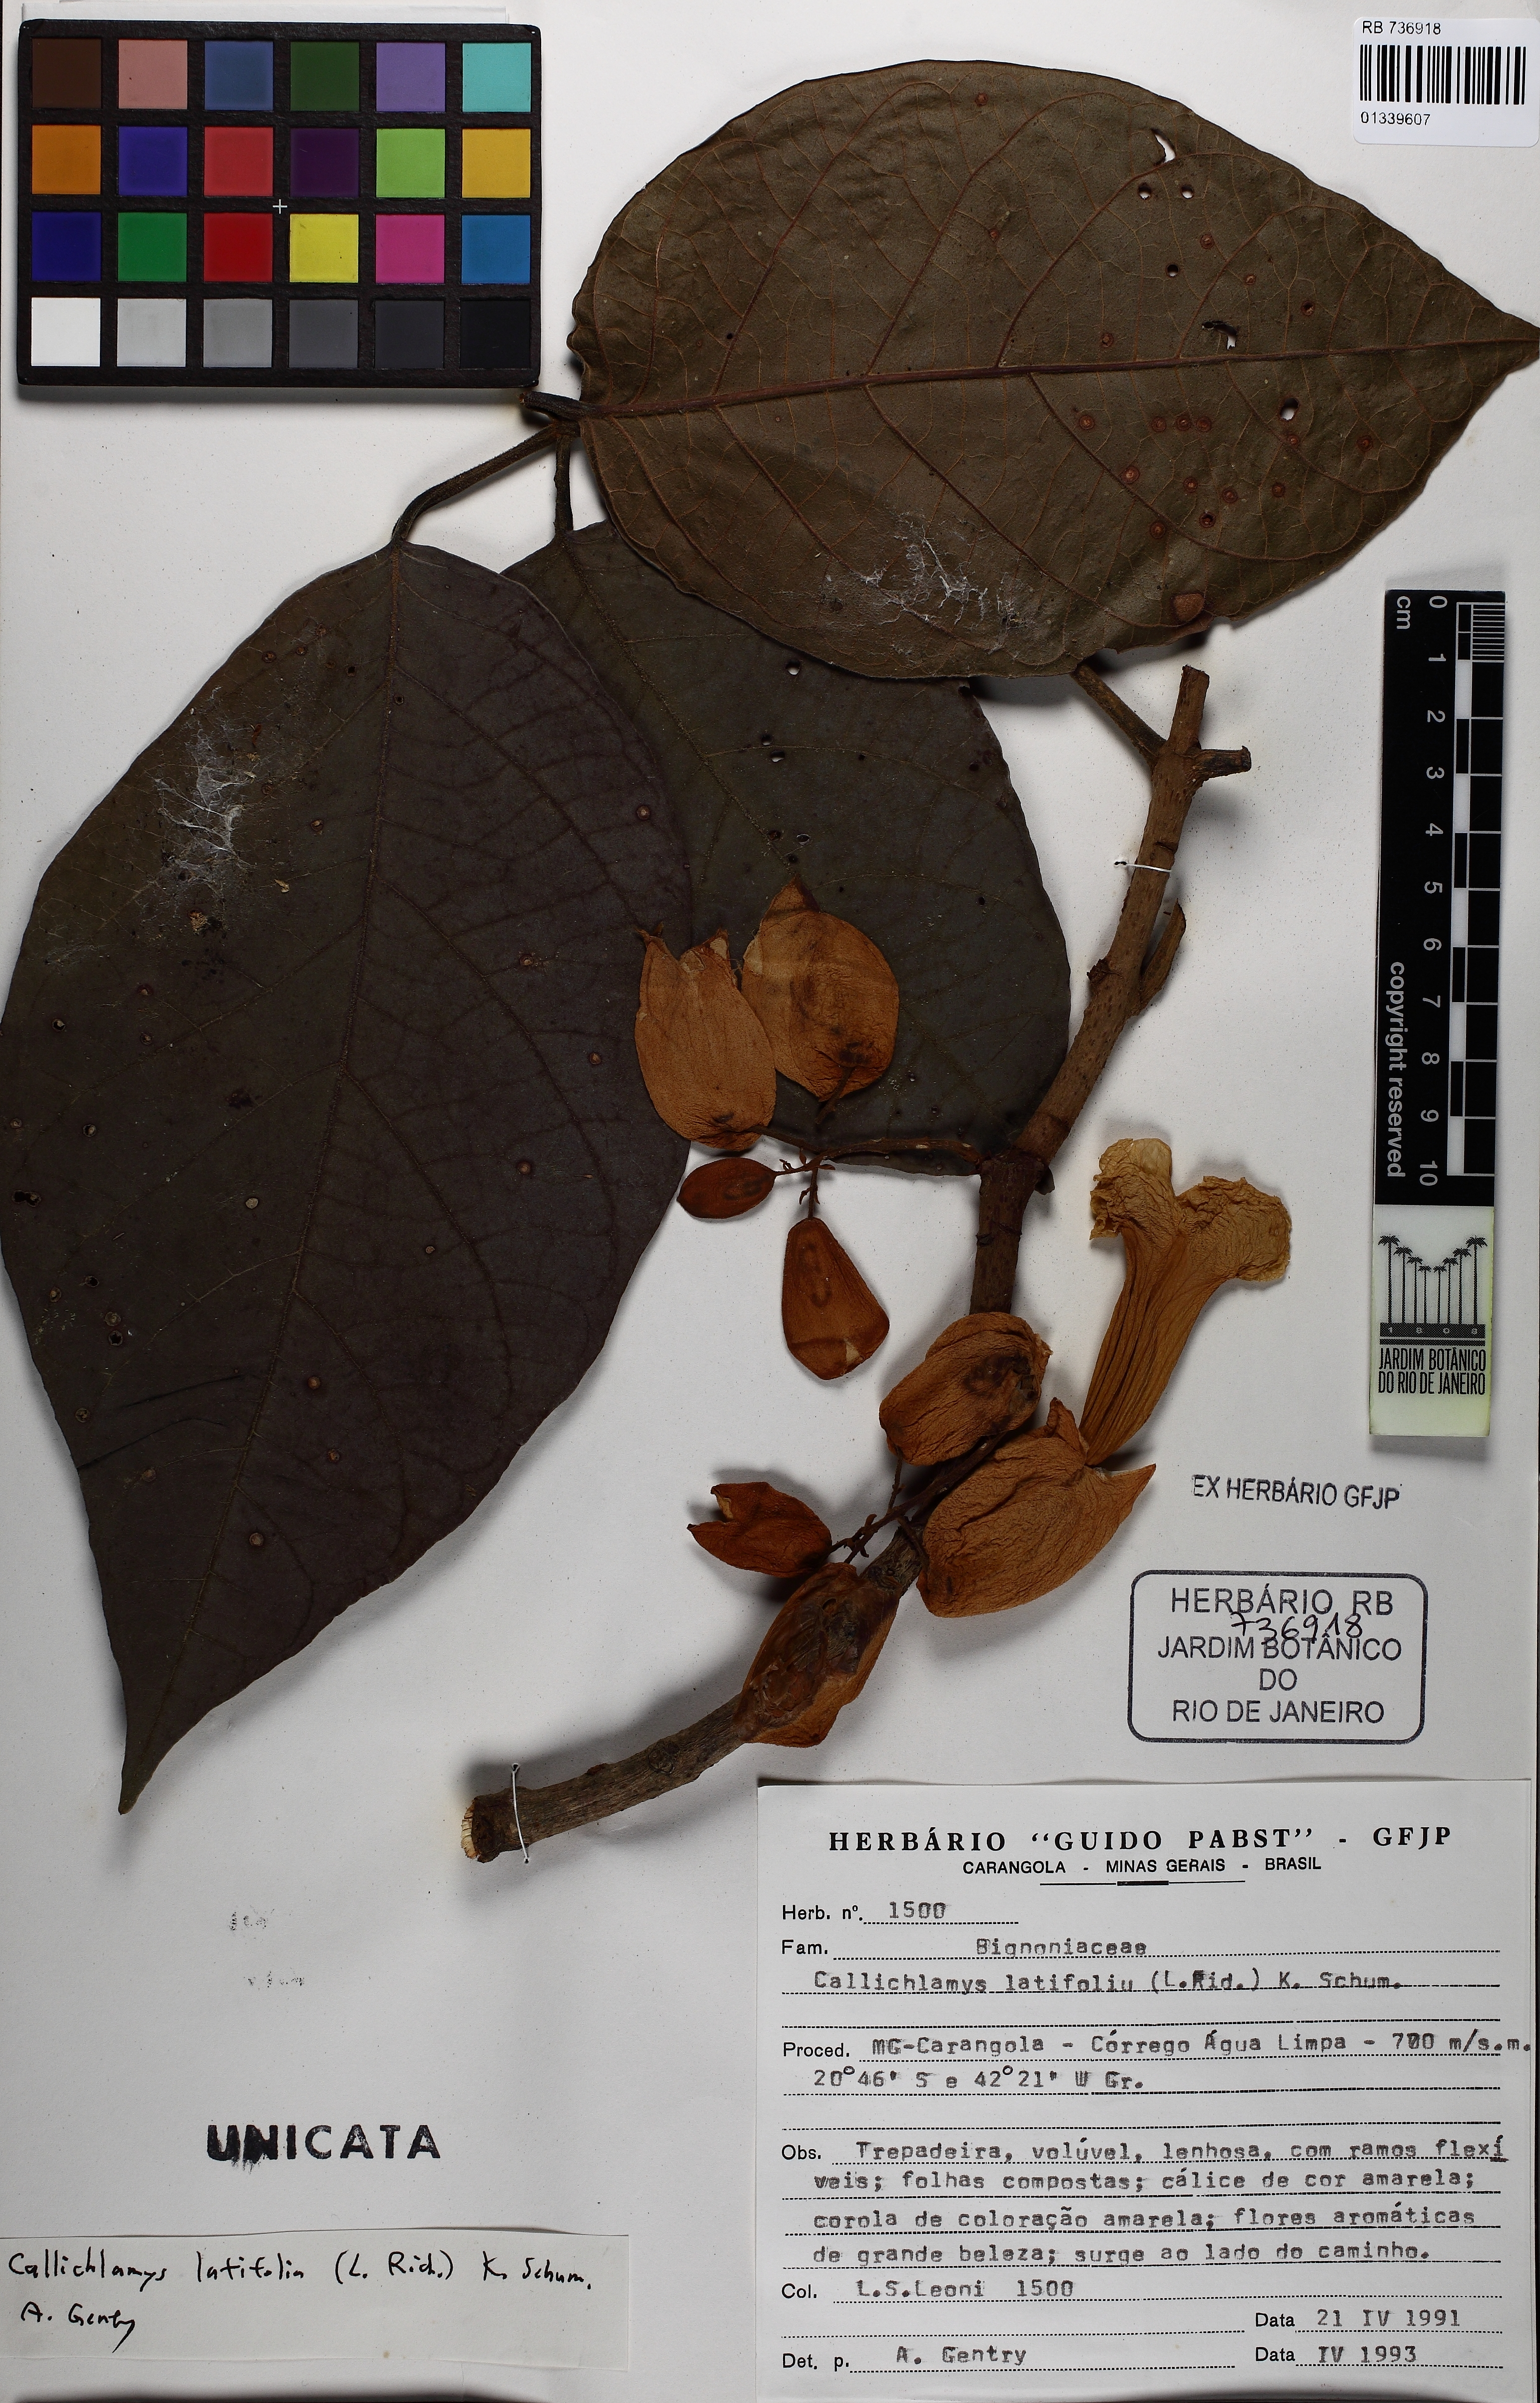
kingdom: Plantae
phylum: Tracheophyta
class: Magnoliopsida
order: Lamiales
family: Bignoniaceae
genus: Callichlamys
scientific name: Callichlamys latifolia
